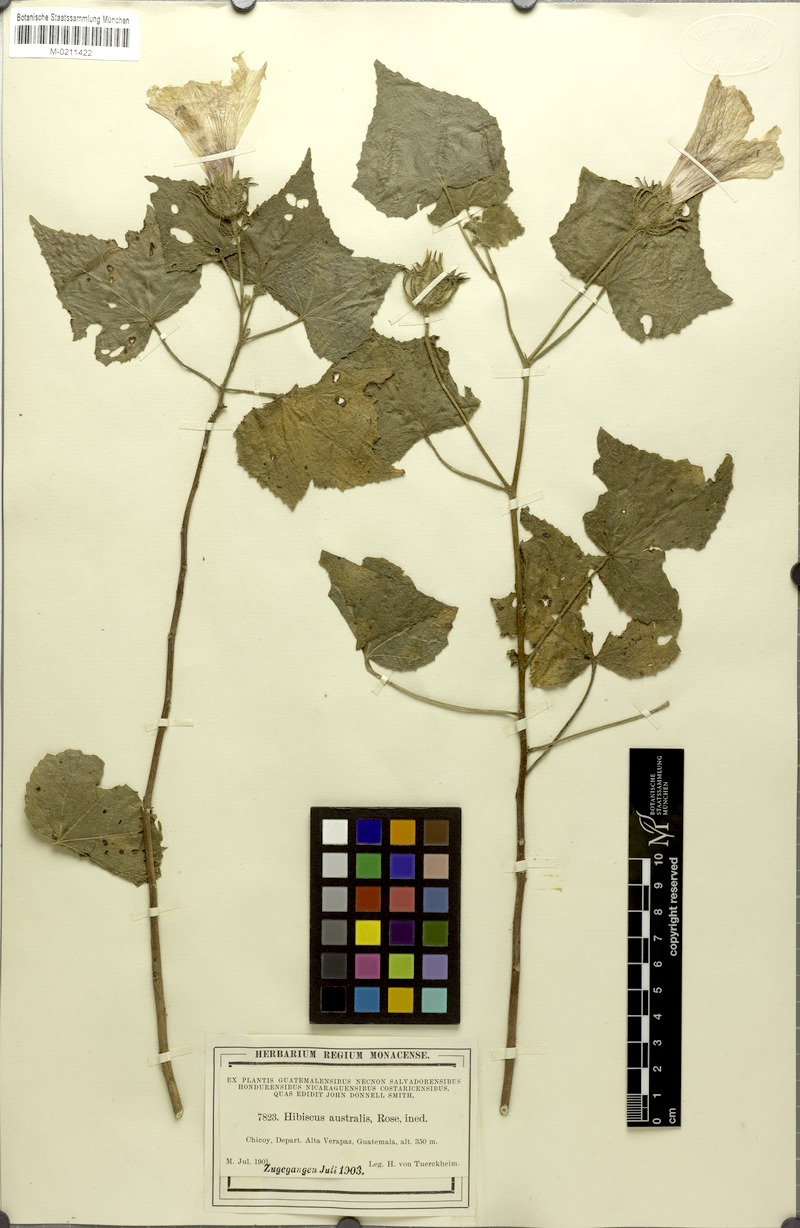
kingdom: Plantae
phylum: Tracheophyta
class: Magnoliopsida
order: Malvales
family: Malvaceae
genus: Hibiscus
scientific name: Hibiscus costatus
